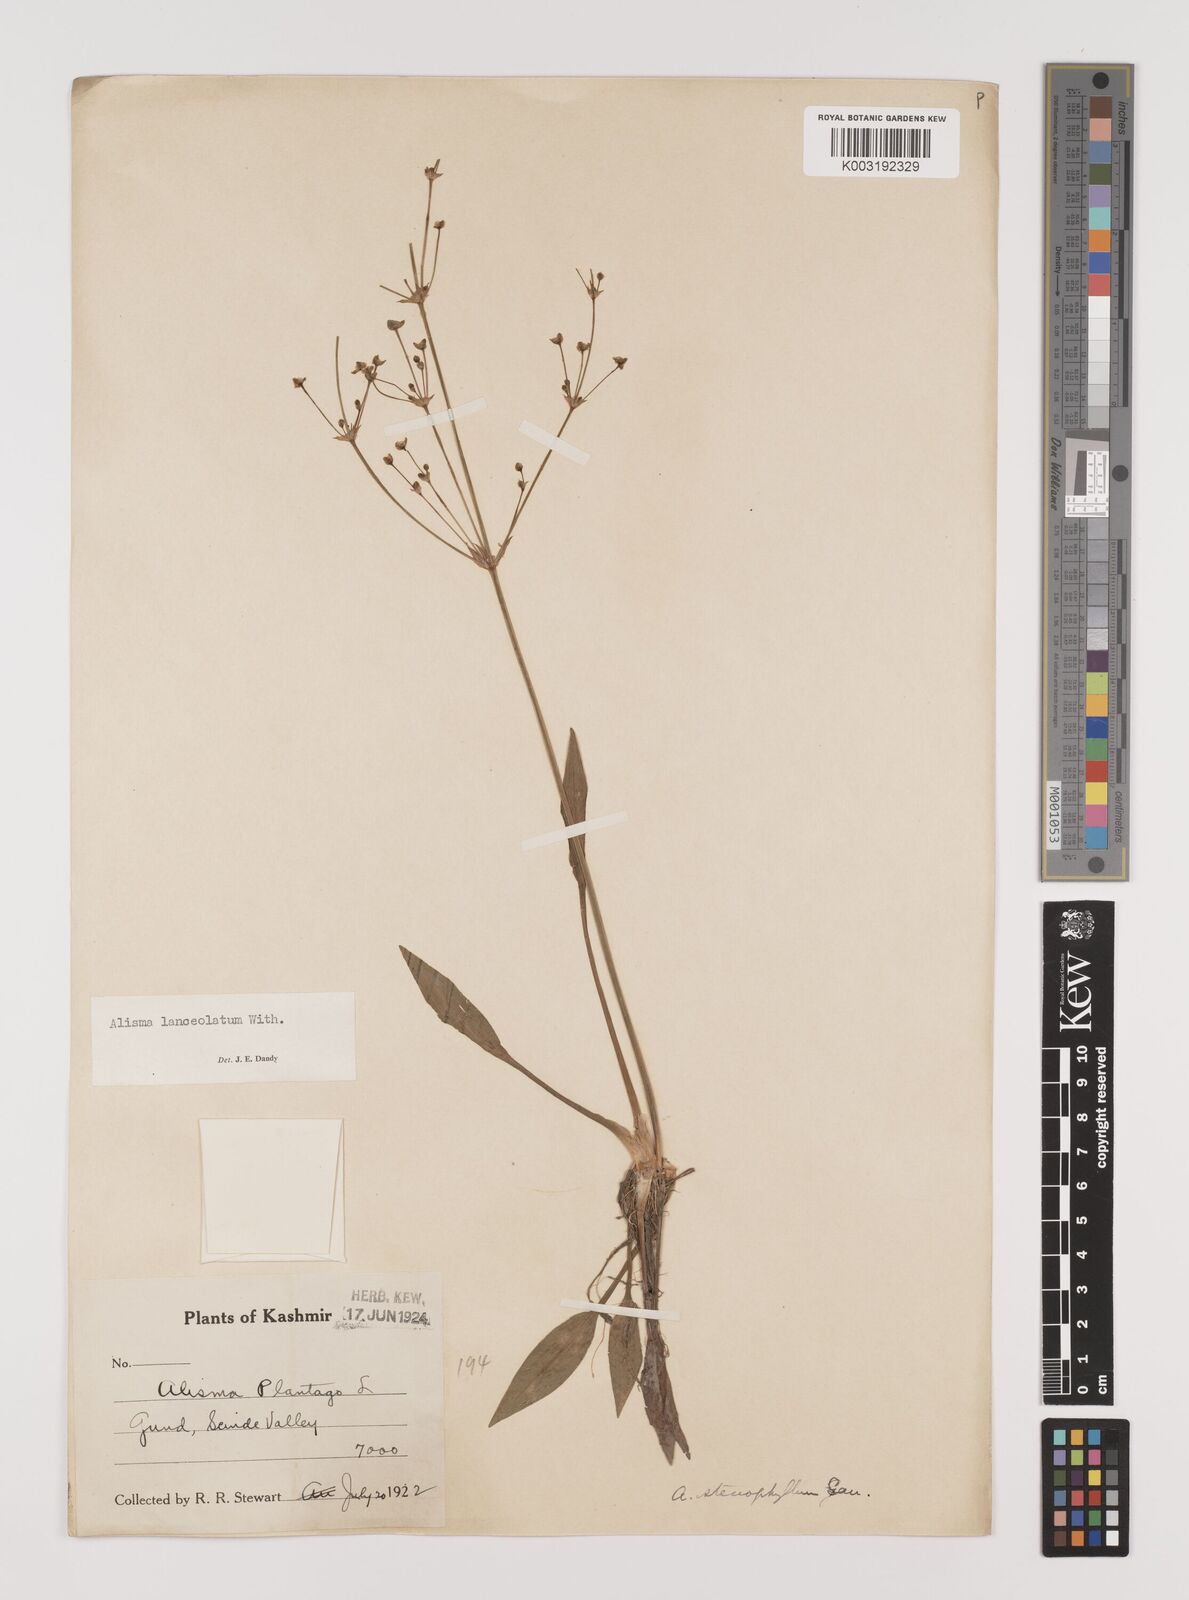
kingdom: Plantae
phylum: Tracheophyta
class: Liliopsida
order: Alismatales
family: Alismataceae
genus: Alisma
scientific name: Alisma lanceolatum
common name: Narrow-leaved water-plantain
